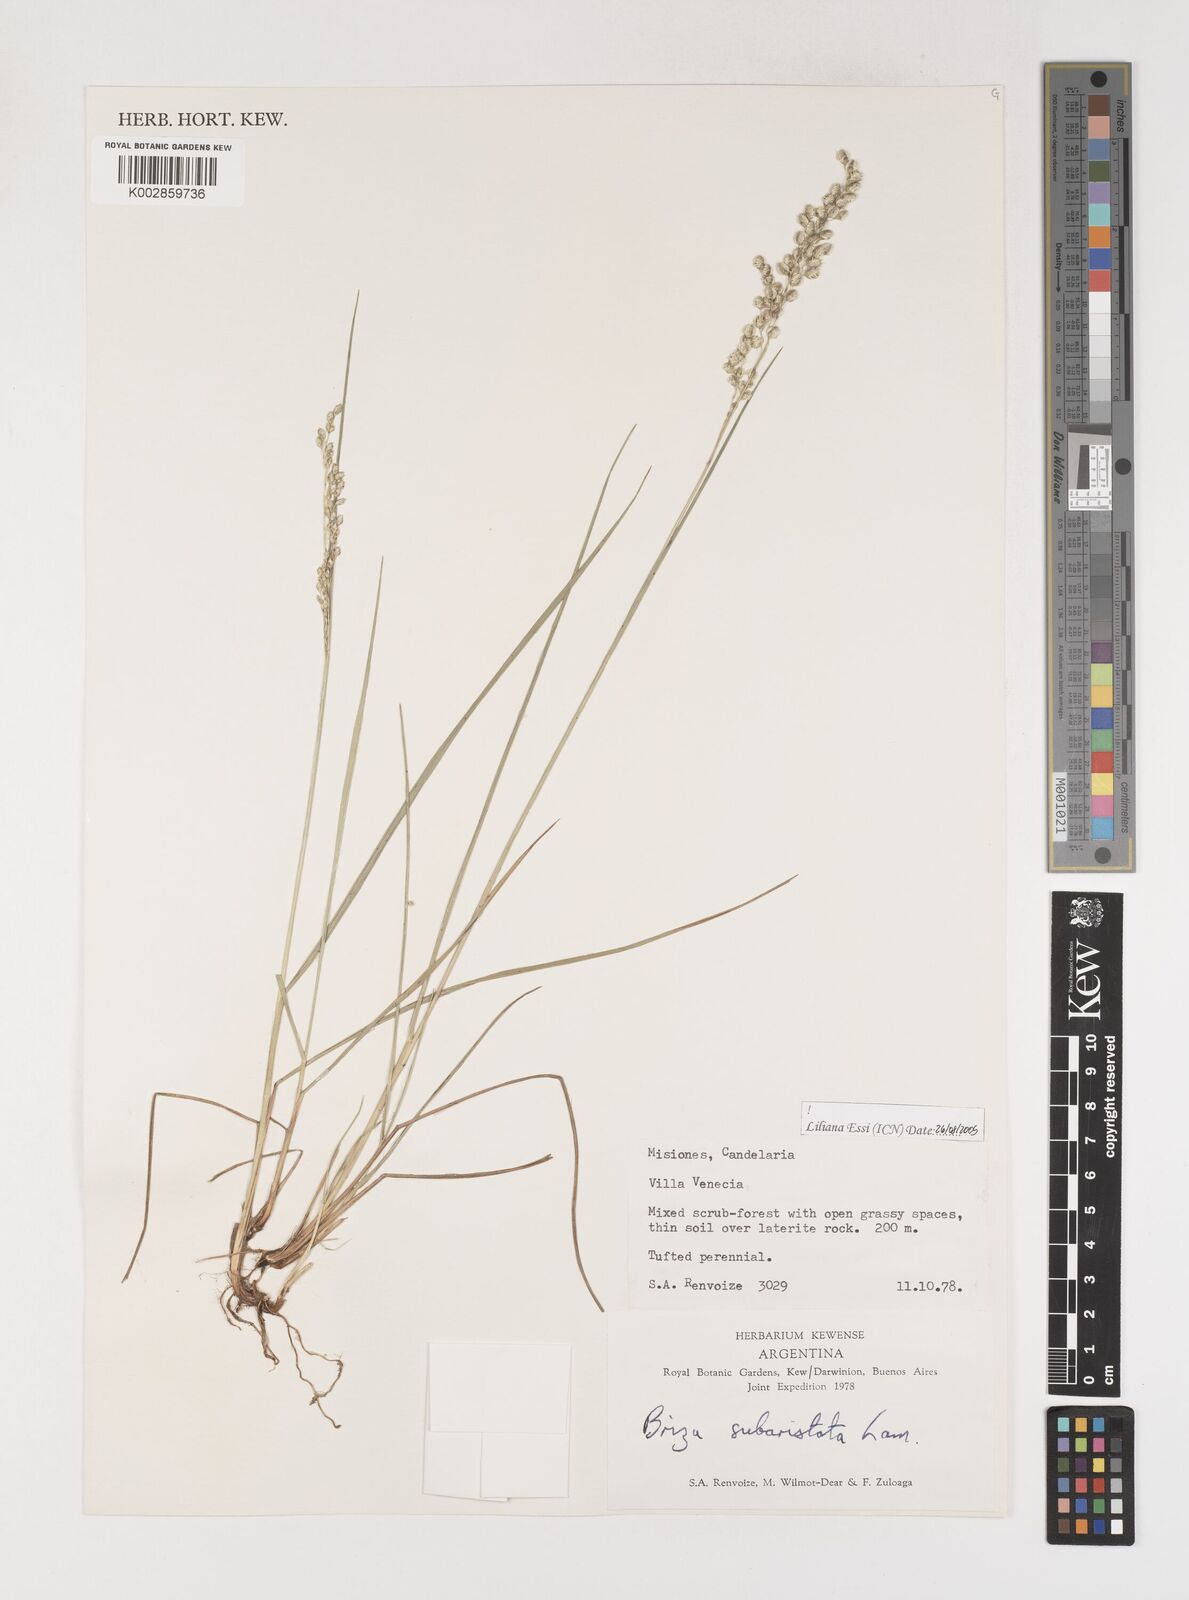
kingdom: Plantae
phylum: Tracheophyta
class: Liliopsida
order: Poales
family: Poaceae
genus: Chascolytrum
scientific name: Chascolytrum subaristatum
